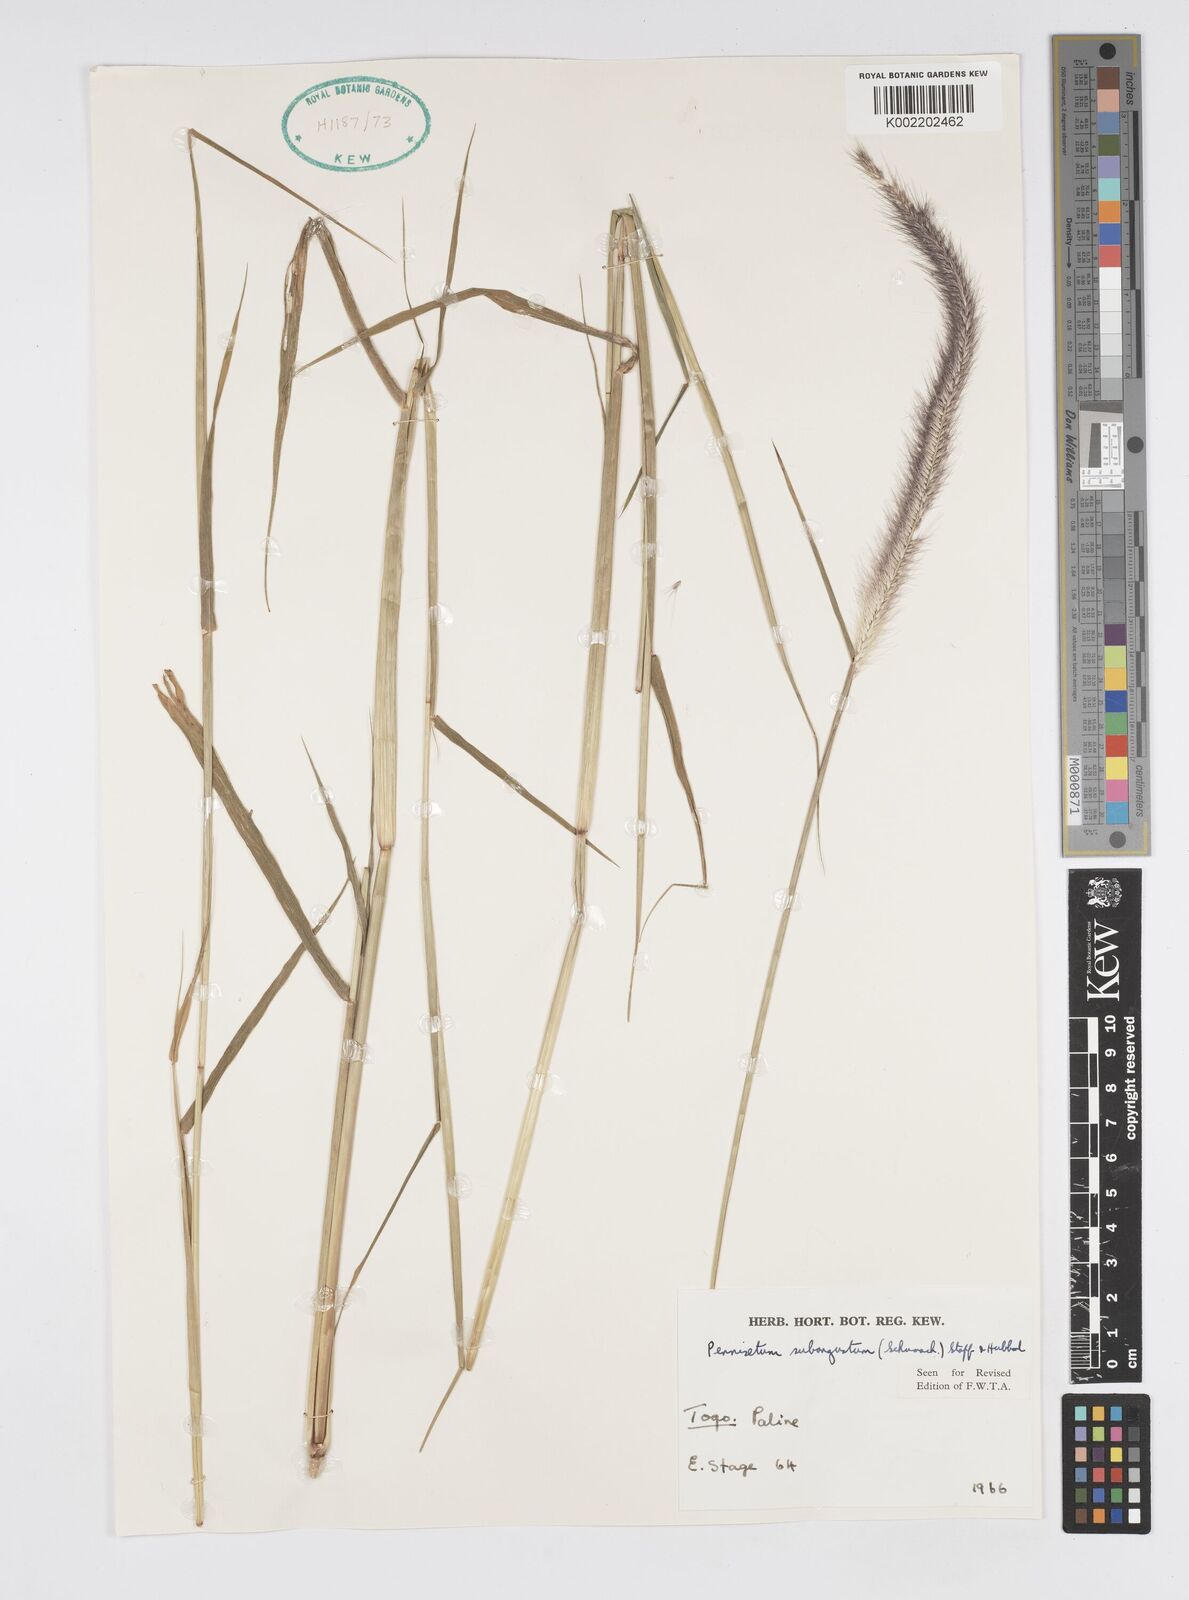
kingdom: Plantae
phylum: Tracheophyta
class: Liliopsida
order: Poales
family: Poaceae
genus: Setaria
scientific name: Setaria parviflora
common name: Knotroot bristle-grass
